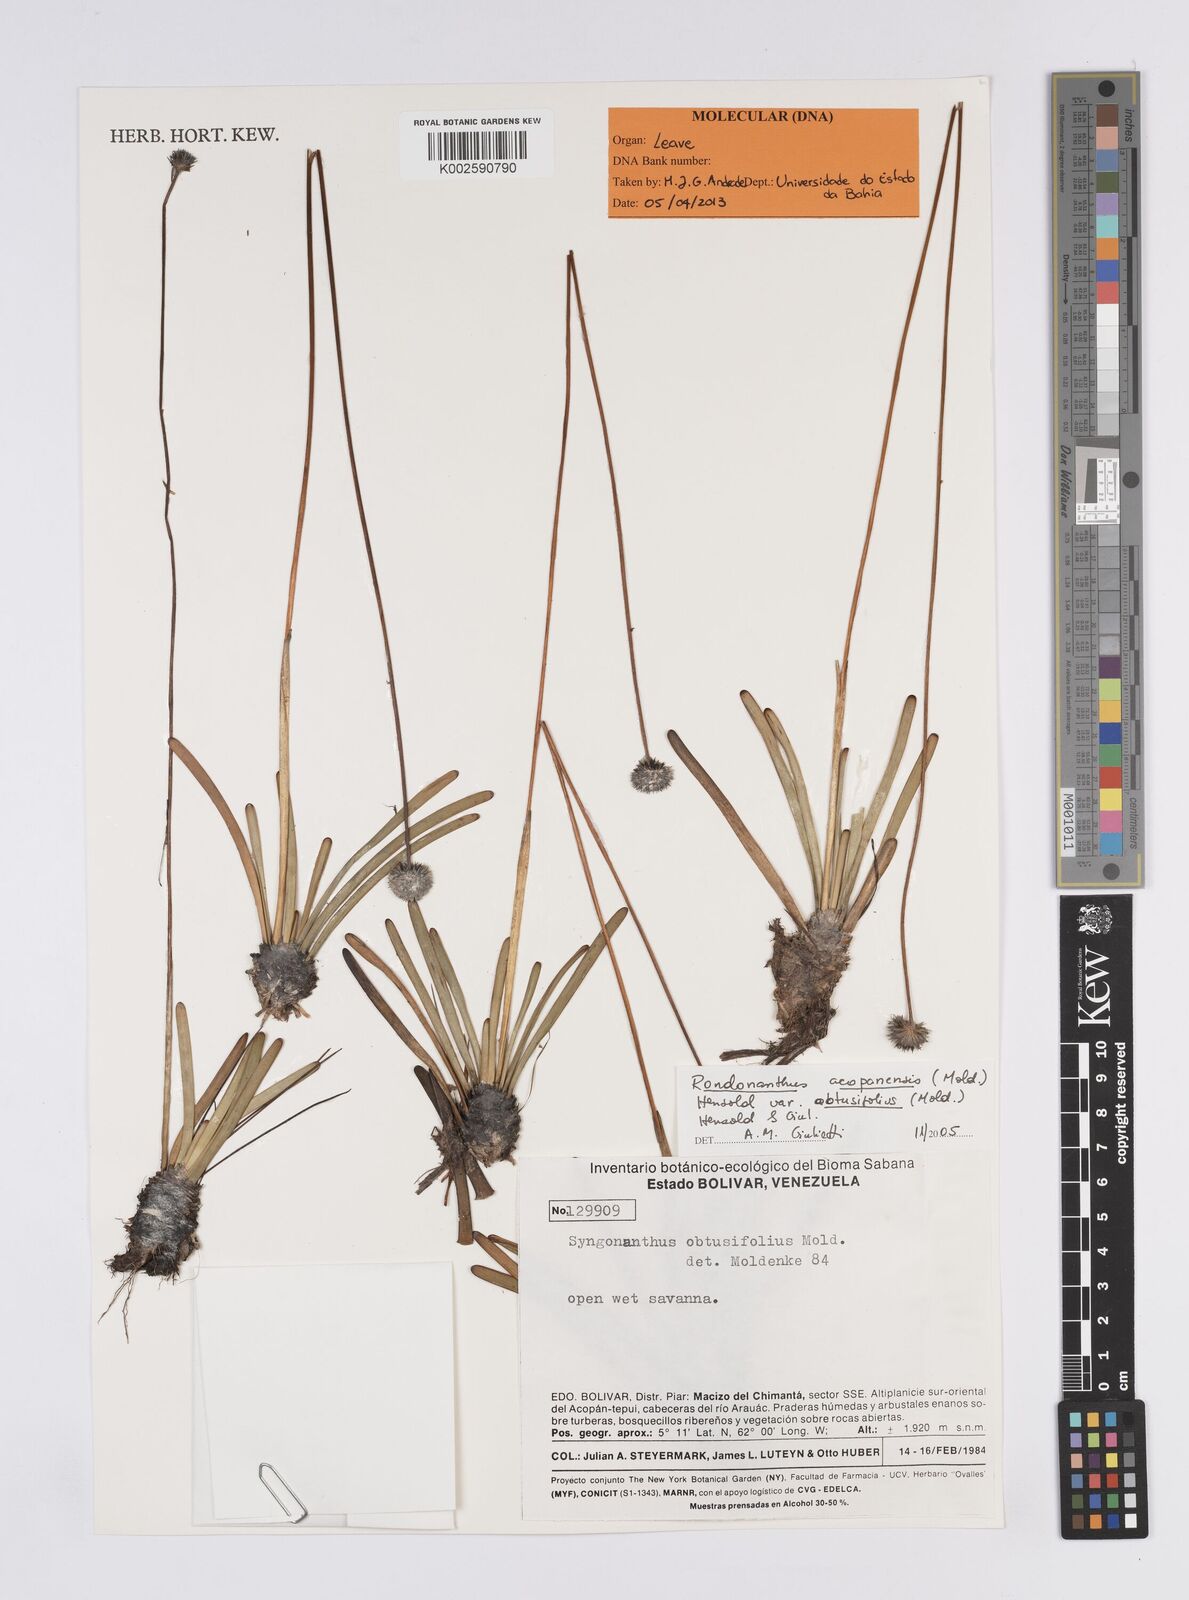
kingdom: Plantae
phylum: Tracheophyta
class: Liliopsida
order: Poales
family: Eriocaulaceae
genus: Rondonanthus
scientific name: Rondonanthus acopanensis
